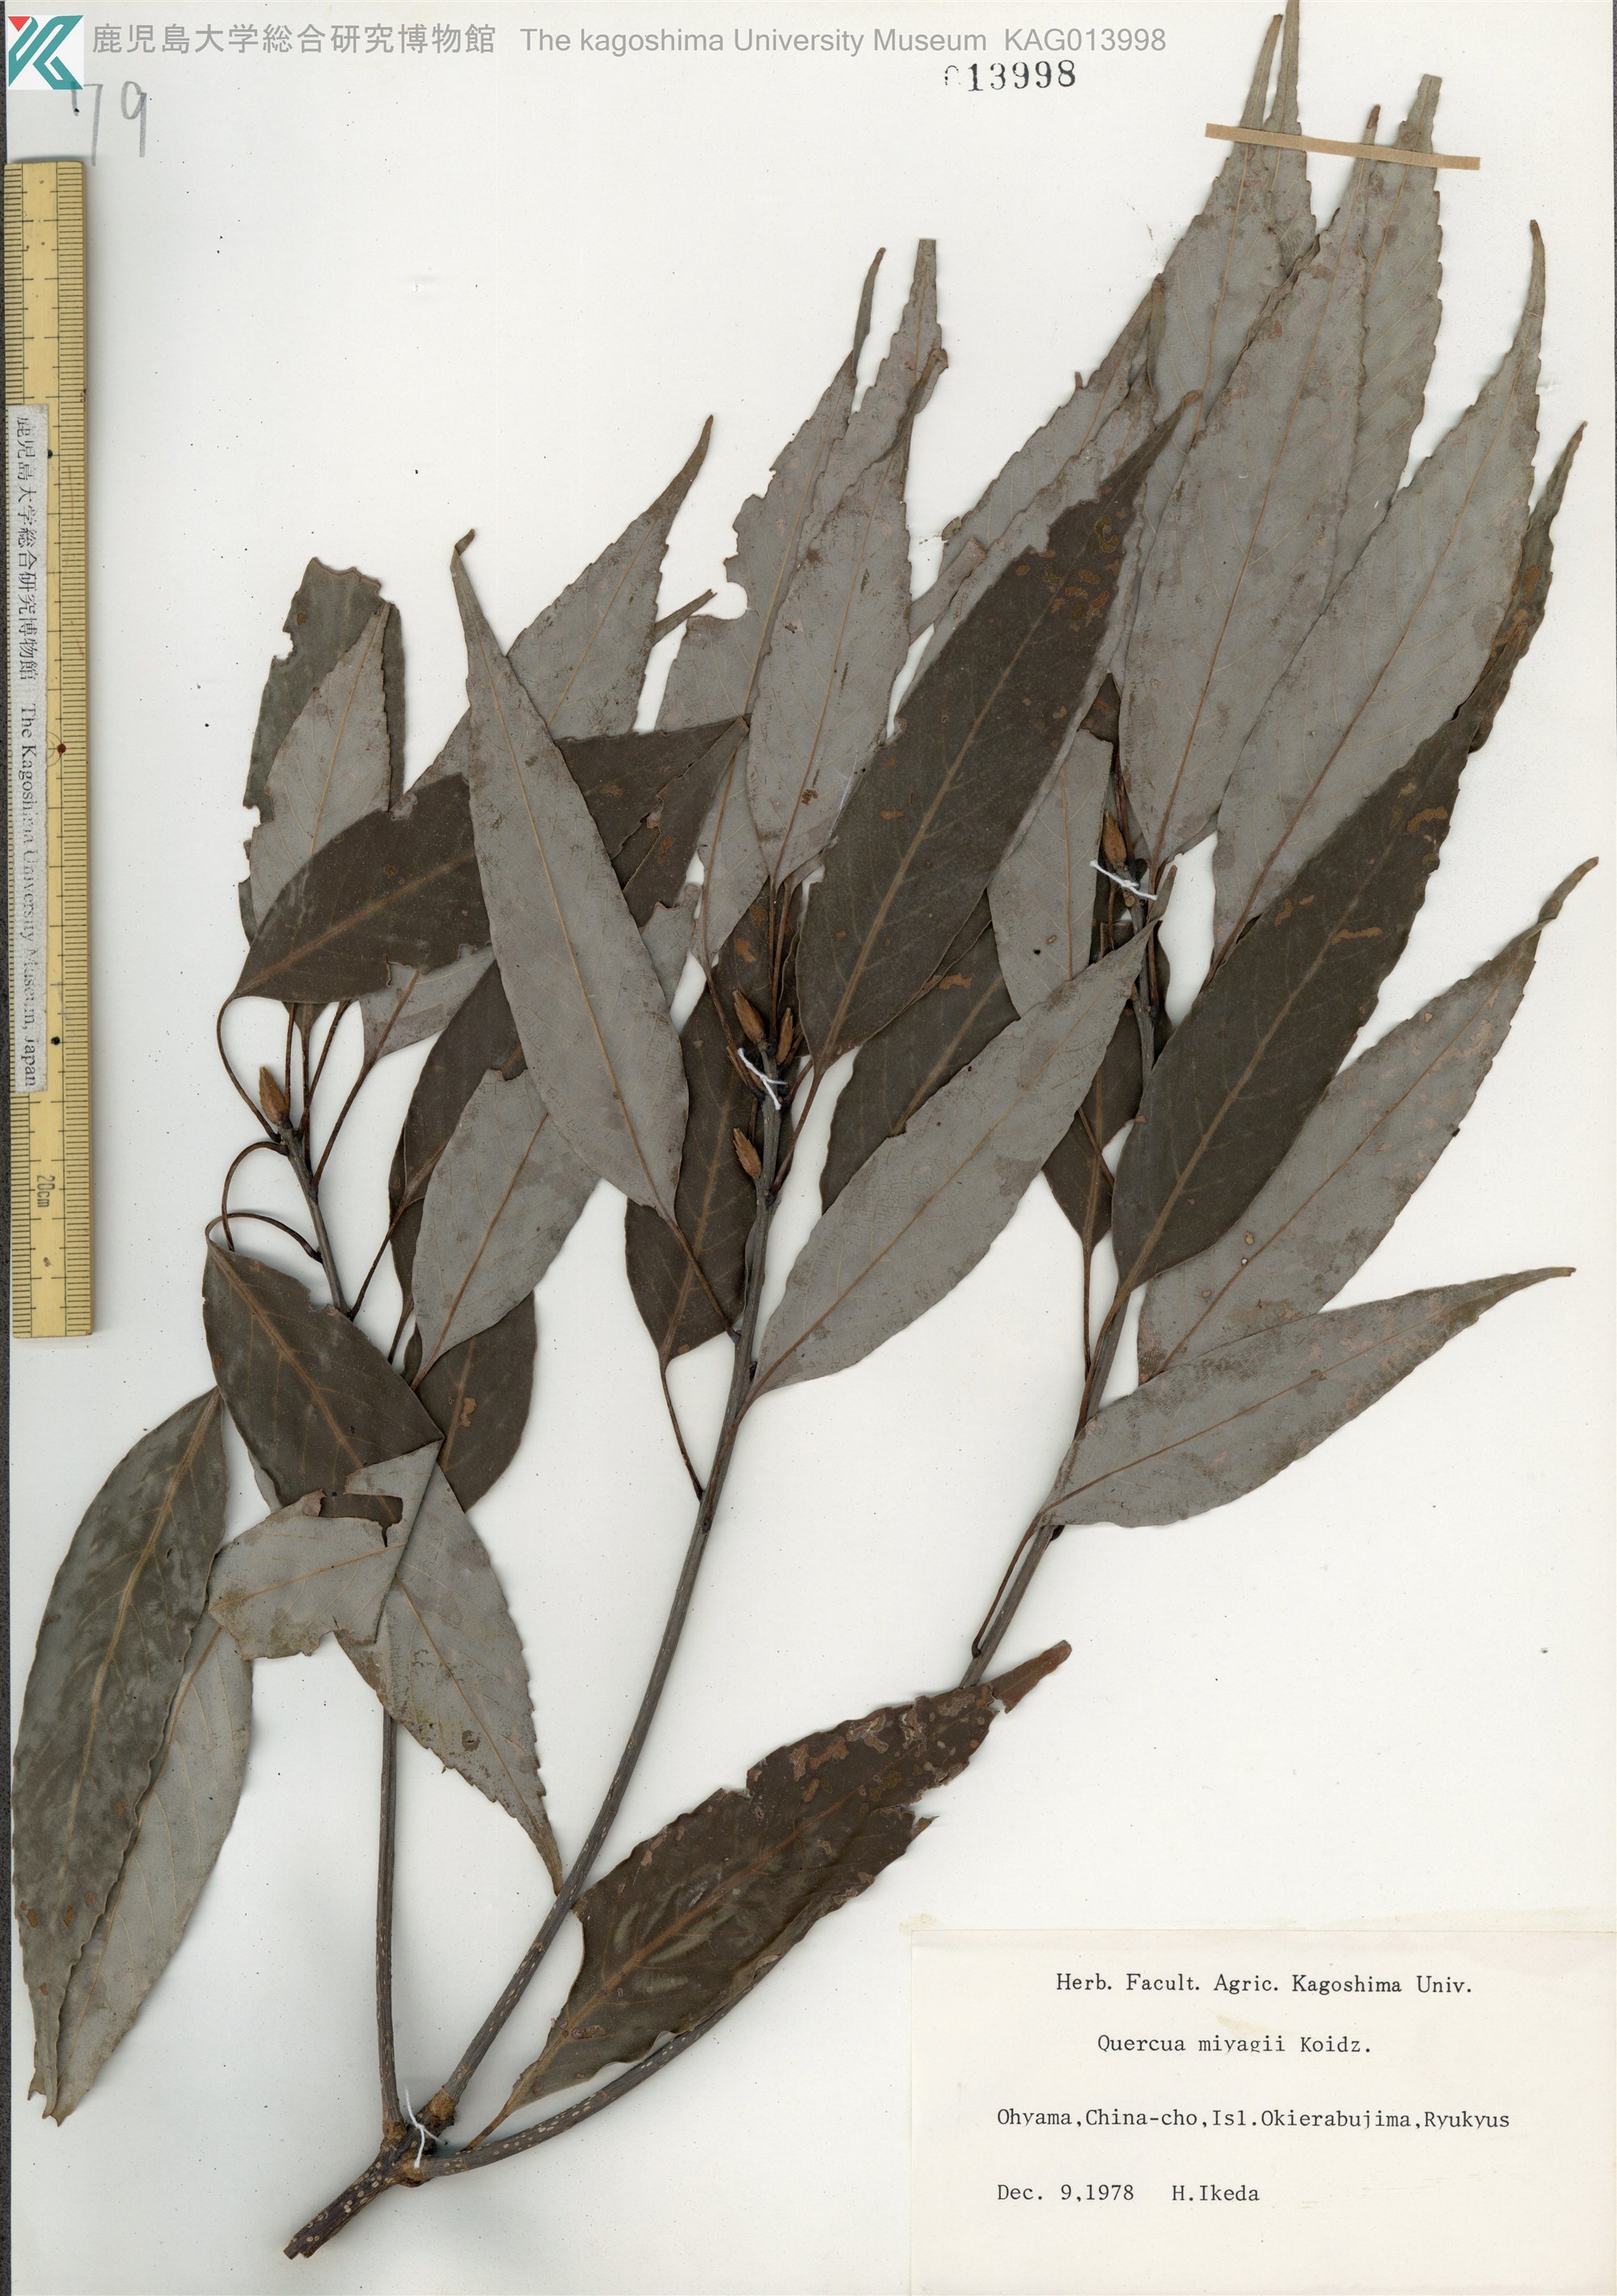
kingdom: Plantae
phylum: Tracheophyta
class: Magnoliopsida
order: Fagales
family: Fagaceae
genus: Quercus
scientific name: Quercus miyagii
